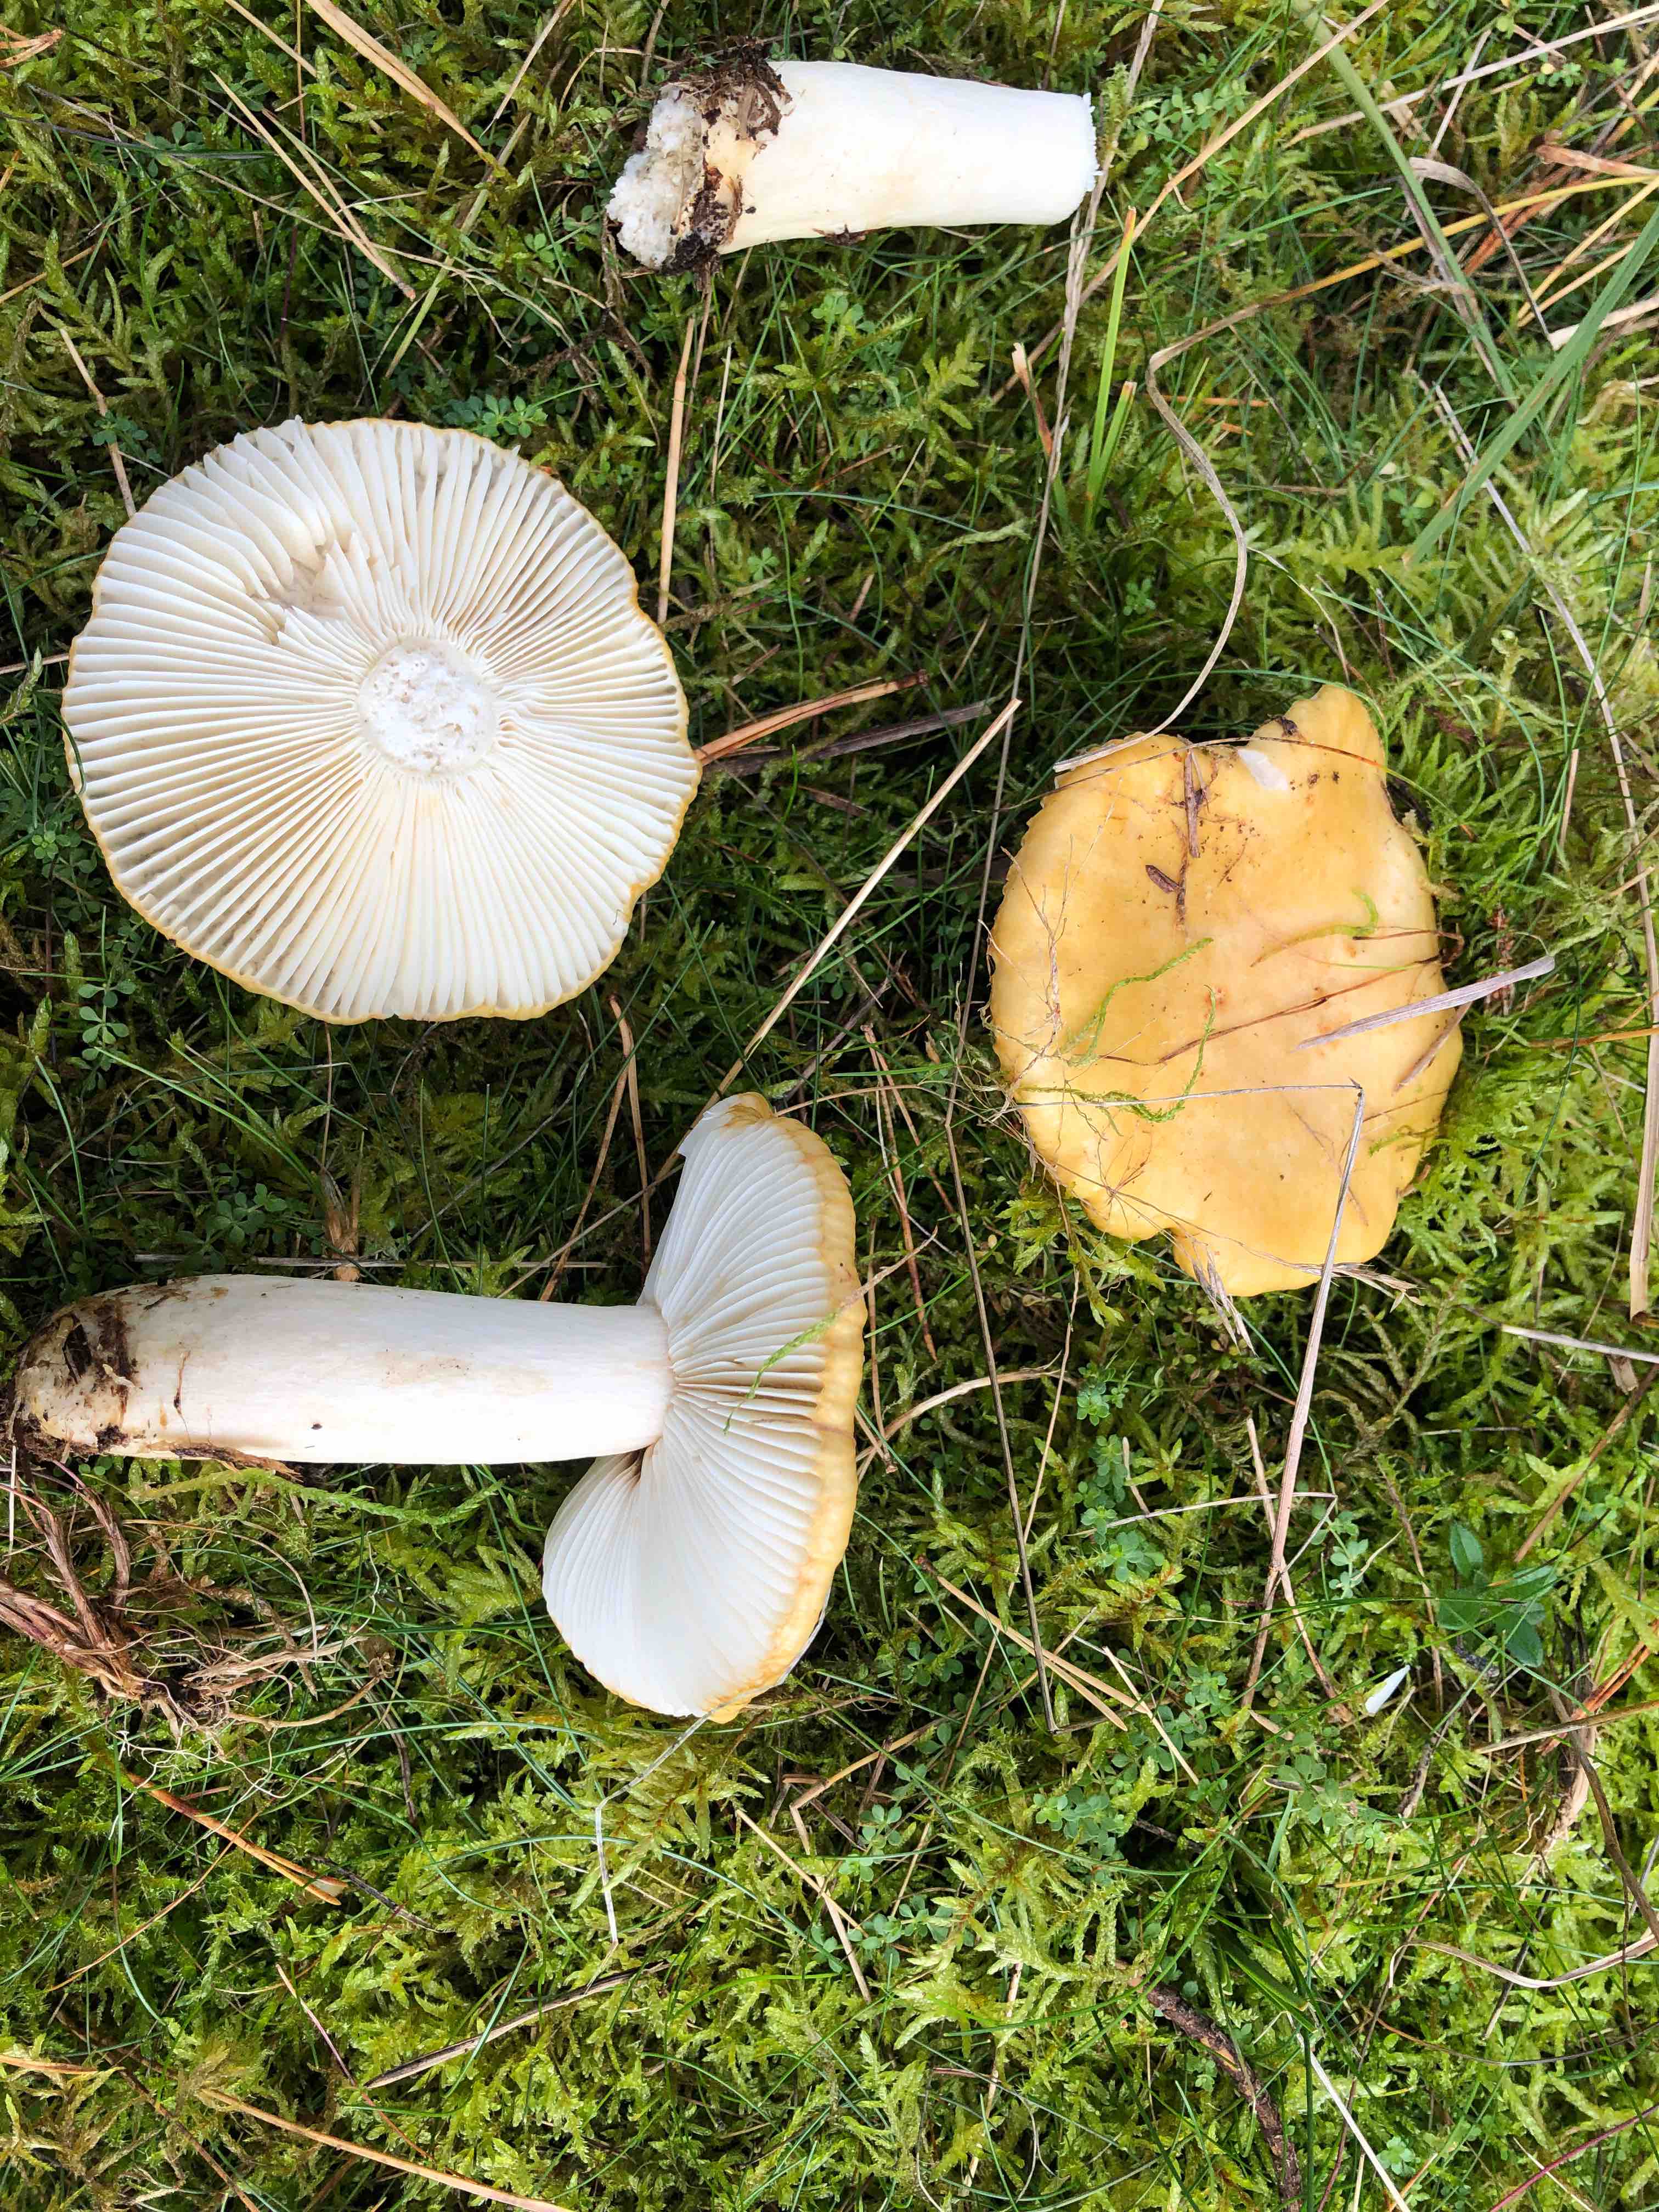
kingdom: Fungi
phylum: Basidiomycota
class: Agaricomycetes
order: Russulales
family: Russulaceae
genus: Russula
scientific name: Russula ochroleuca
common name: okkergul skørhat
